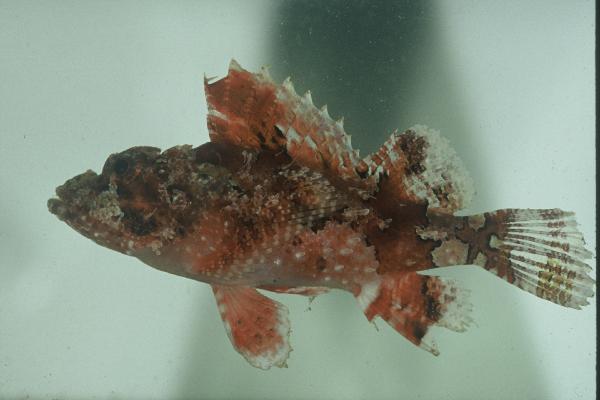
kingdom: Animalia
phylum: Chordata
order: Scorpaeniformes
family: Scorpaenidae
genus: Scorpaena
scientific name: Scorpaena scrofa
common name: Red scorpionfish
